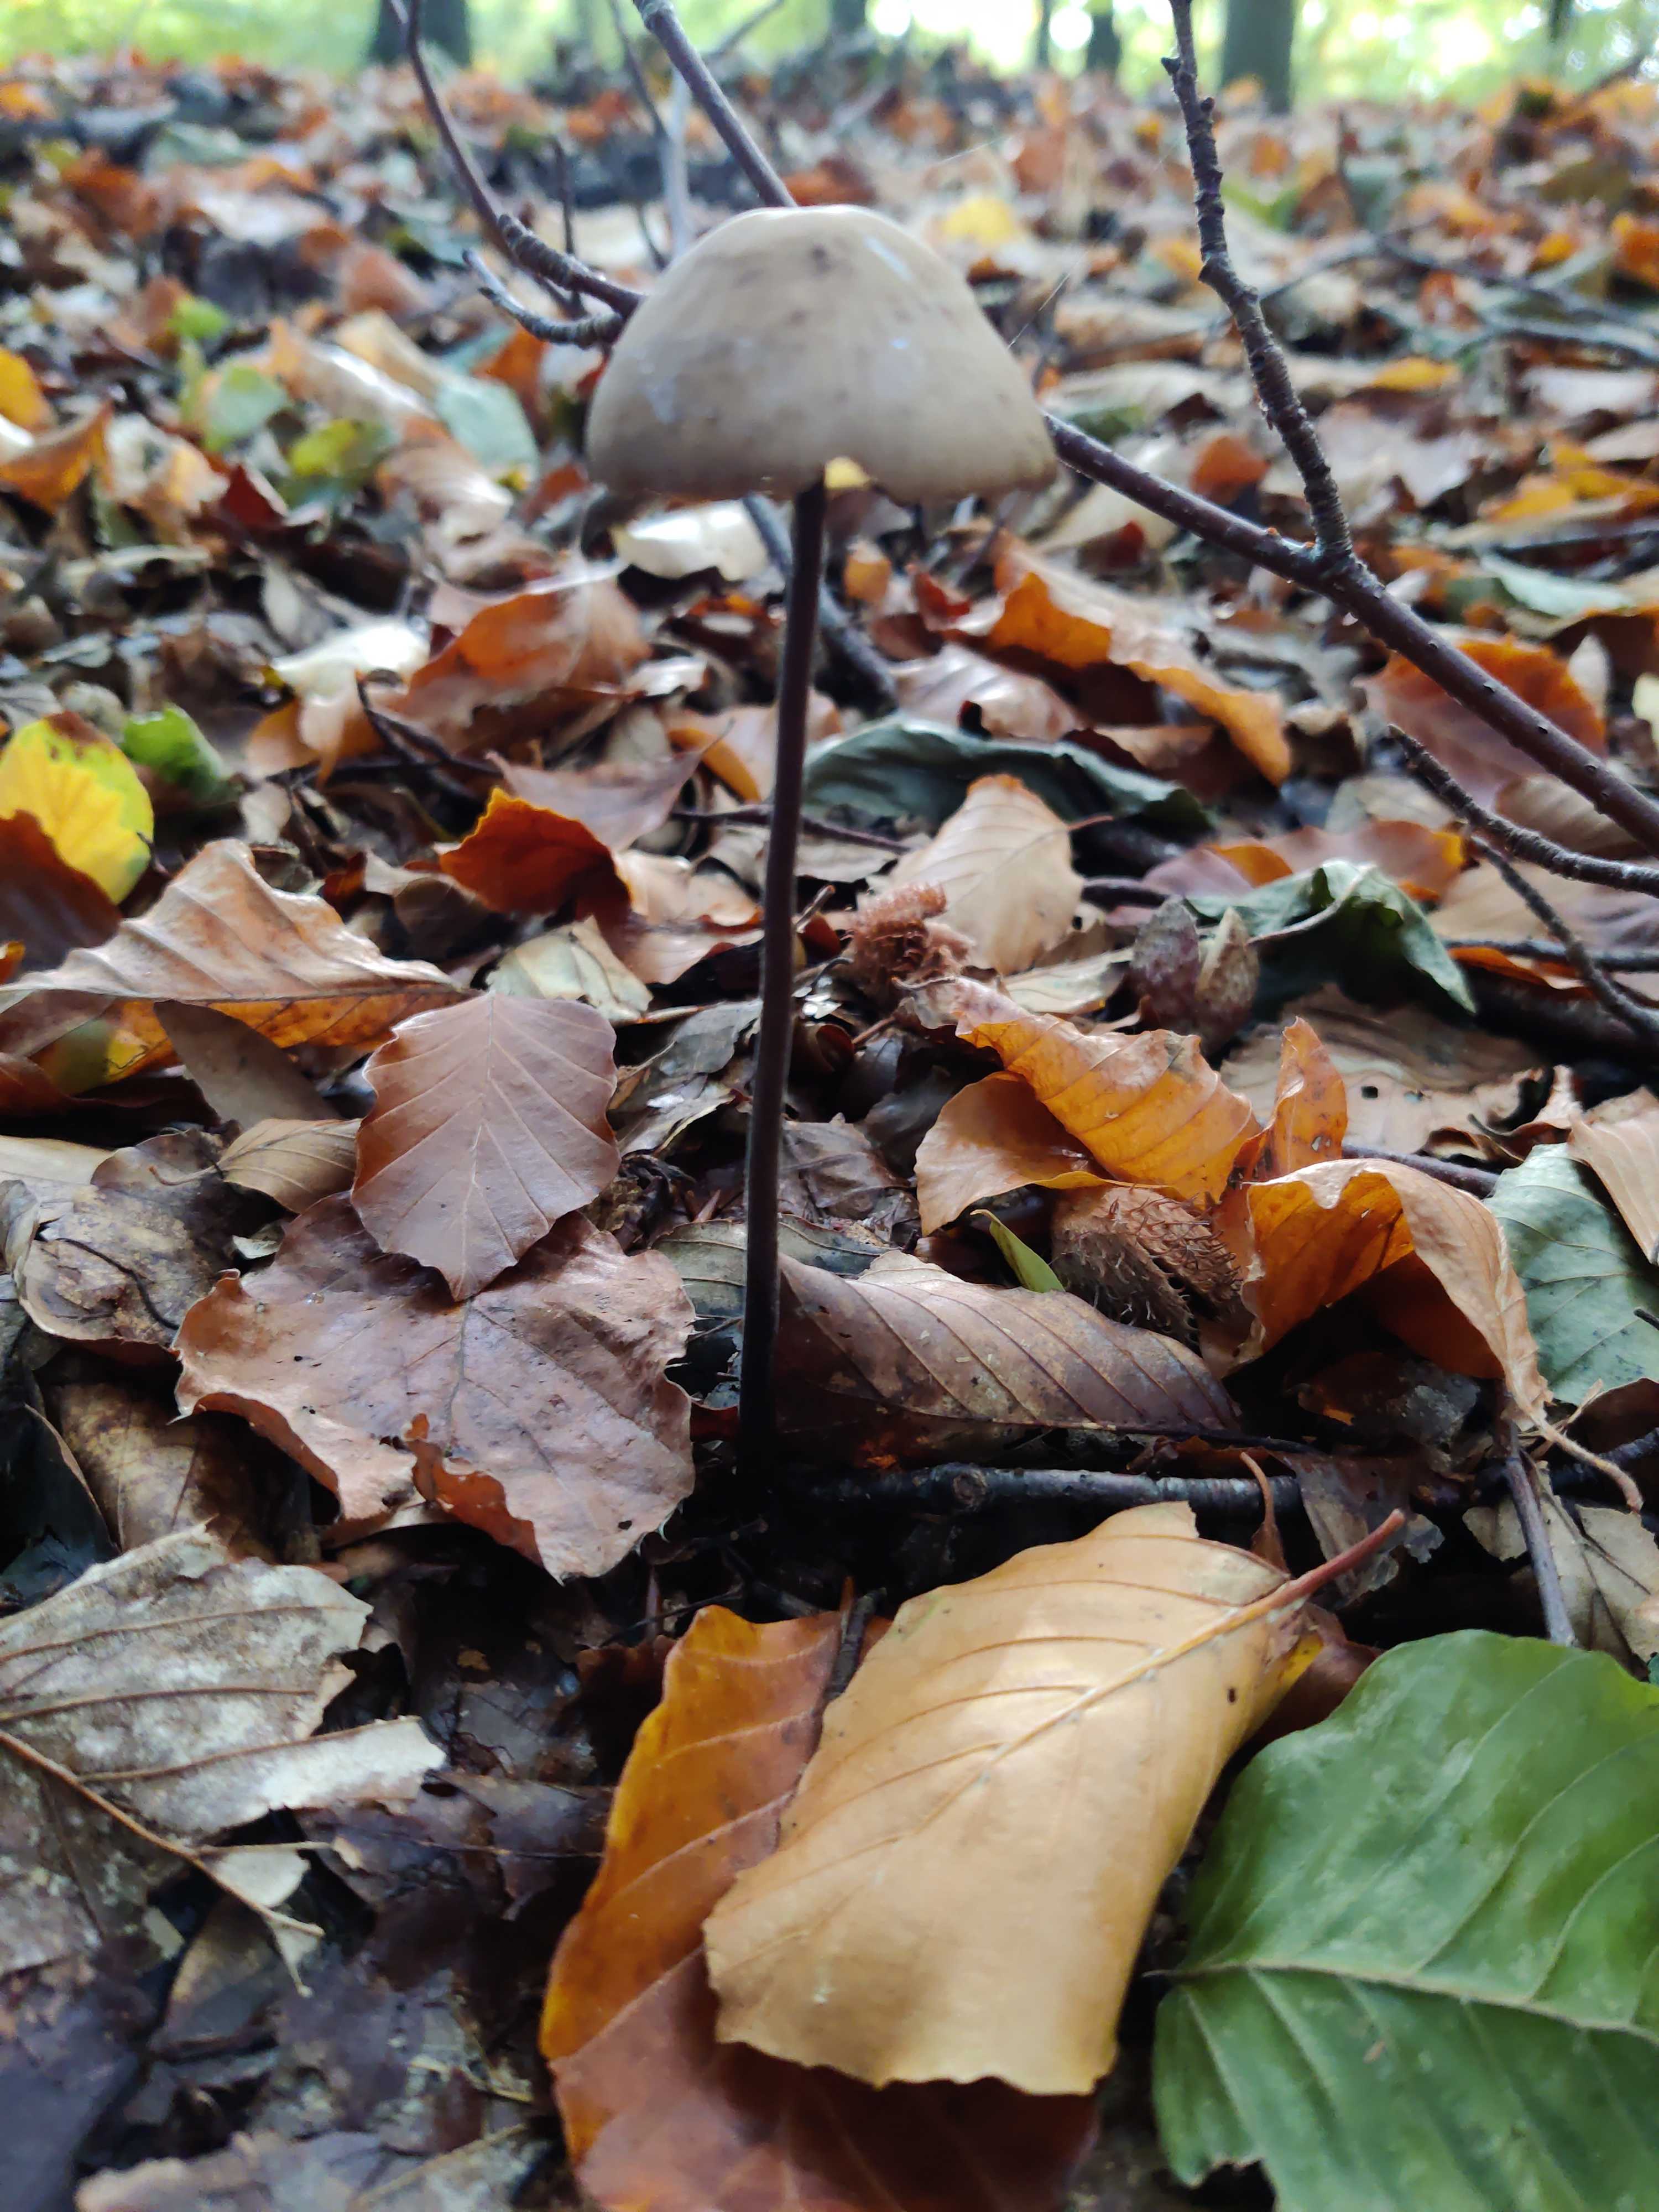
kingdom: Fungi
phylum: Basidiomycota
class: Agaricomycetes
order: Agaricales
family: Omphalotaceae
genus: Mycetinis
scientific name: Mycetinis alliaceus
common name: stor løghat
